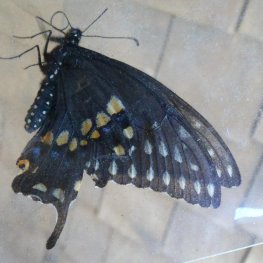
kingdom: Animalia
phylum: Arthropoda
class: Insecta
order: Lepidoptera
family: Papilionidae
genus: Papilio
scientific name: Papilio polyxenes
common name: Black Swallowtail
